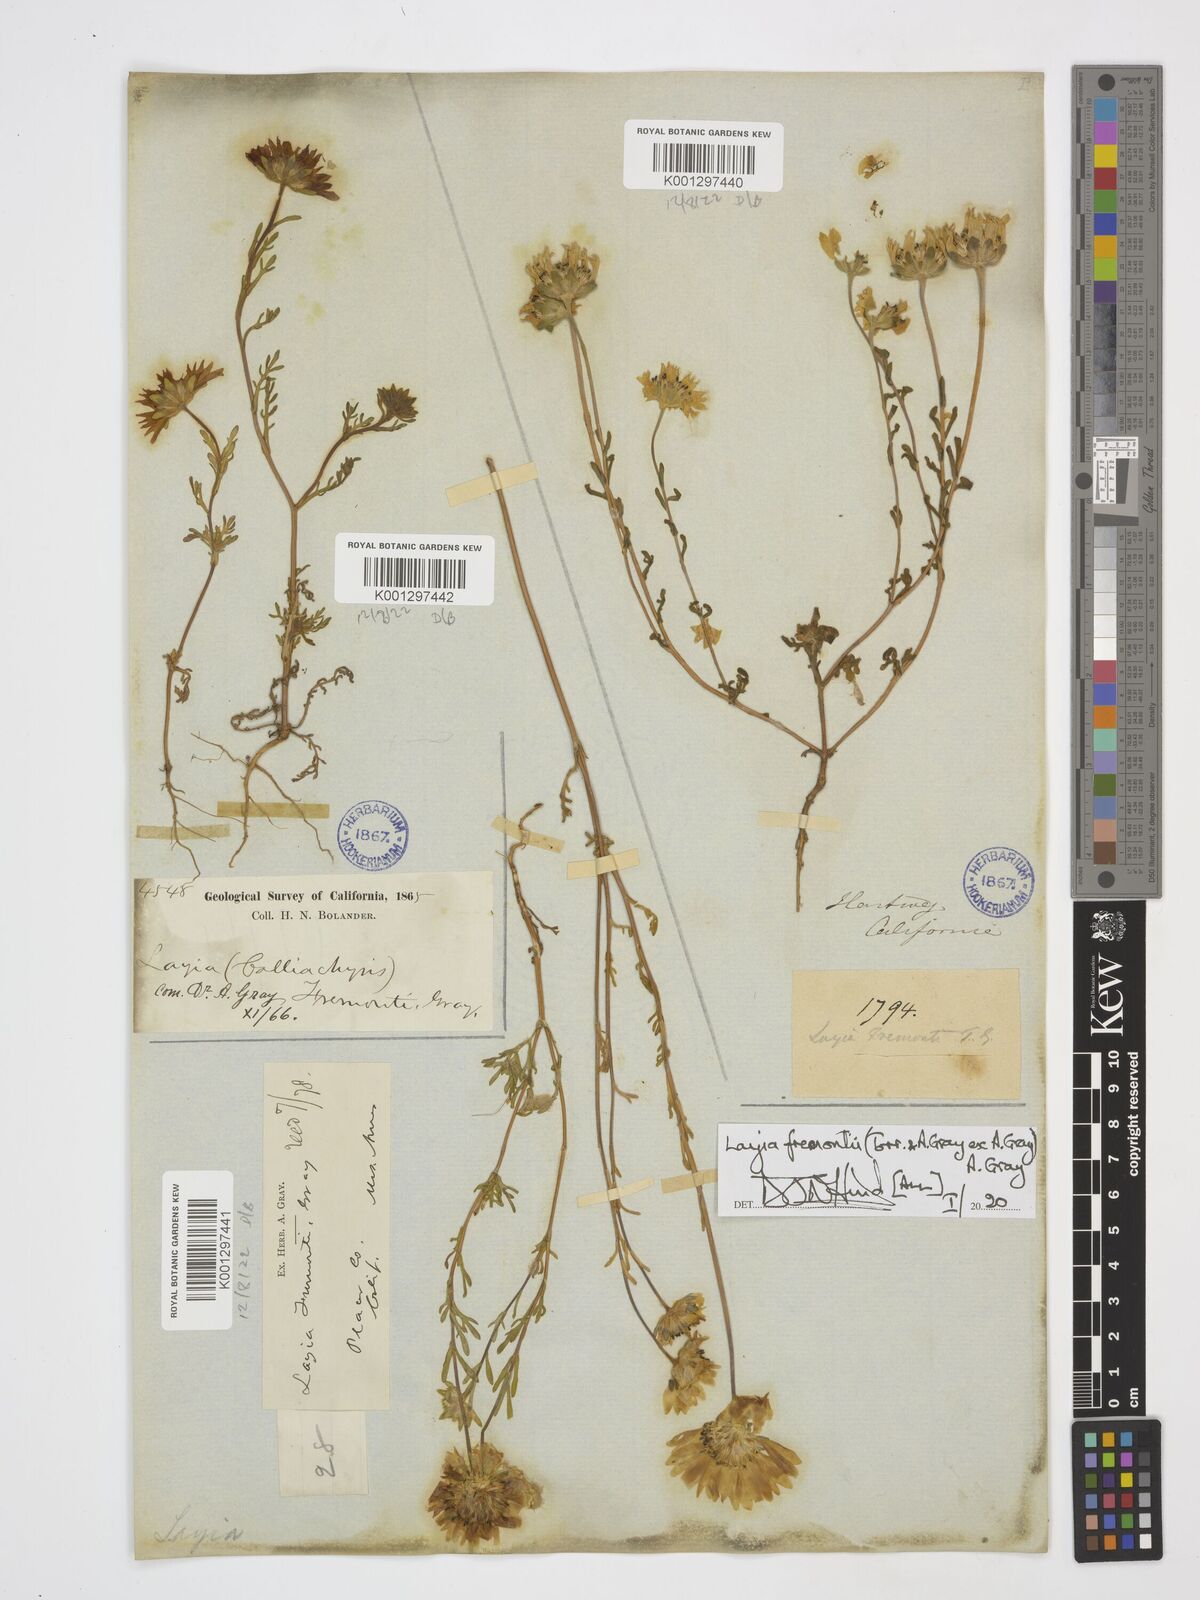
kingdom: Plantae
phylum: Tracheophyta
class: Magnoliopsida
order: Asterales
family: Asteraceae
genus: Layia
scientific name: Layia fremontii
